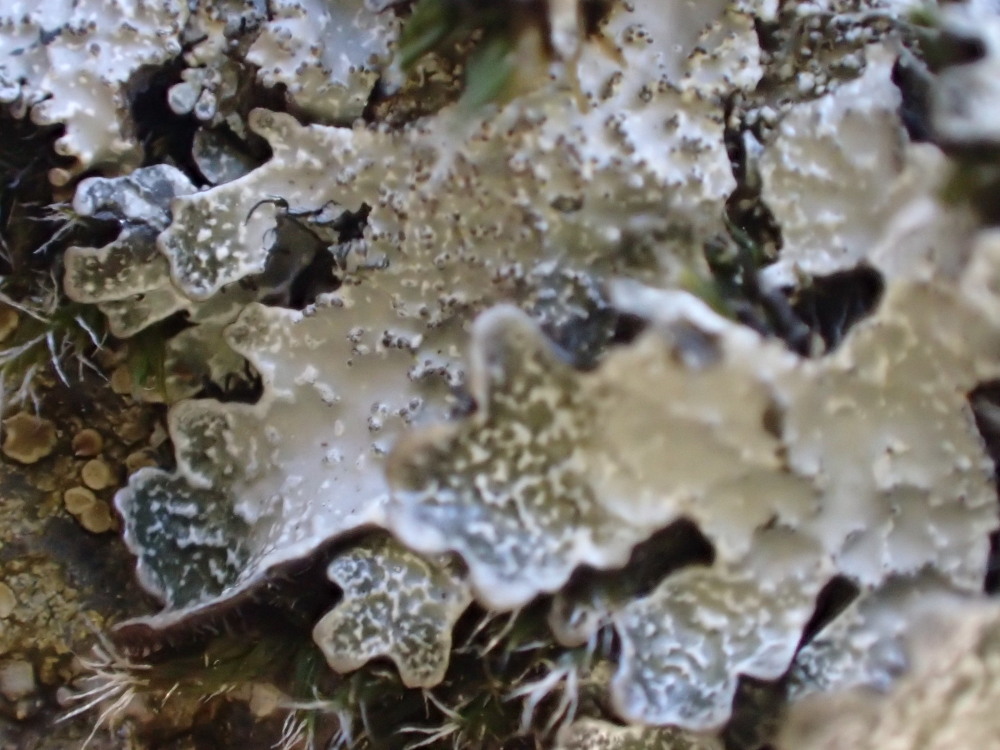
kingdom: Fungi
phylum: Ascomycota
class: Lecanoromycetes
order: Lecanorales
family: Parmeliaceae
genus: Parmelia
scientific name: Parmelia saxatilis
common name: farve-skållav
